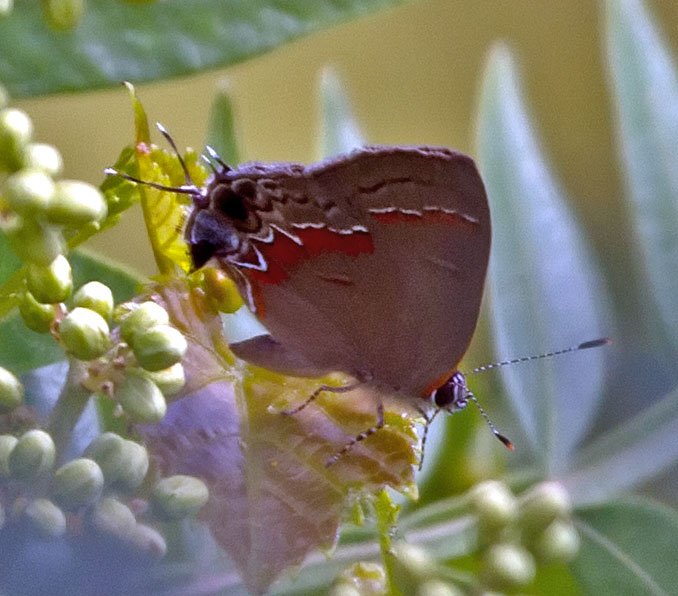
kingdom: Animalia
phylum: Arthropoda
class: Insecta
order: Lepidoptera
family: Lycaenidae
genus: Calycopis
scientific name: Calycopis cecrops
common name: Red-banded Hairstreak
